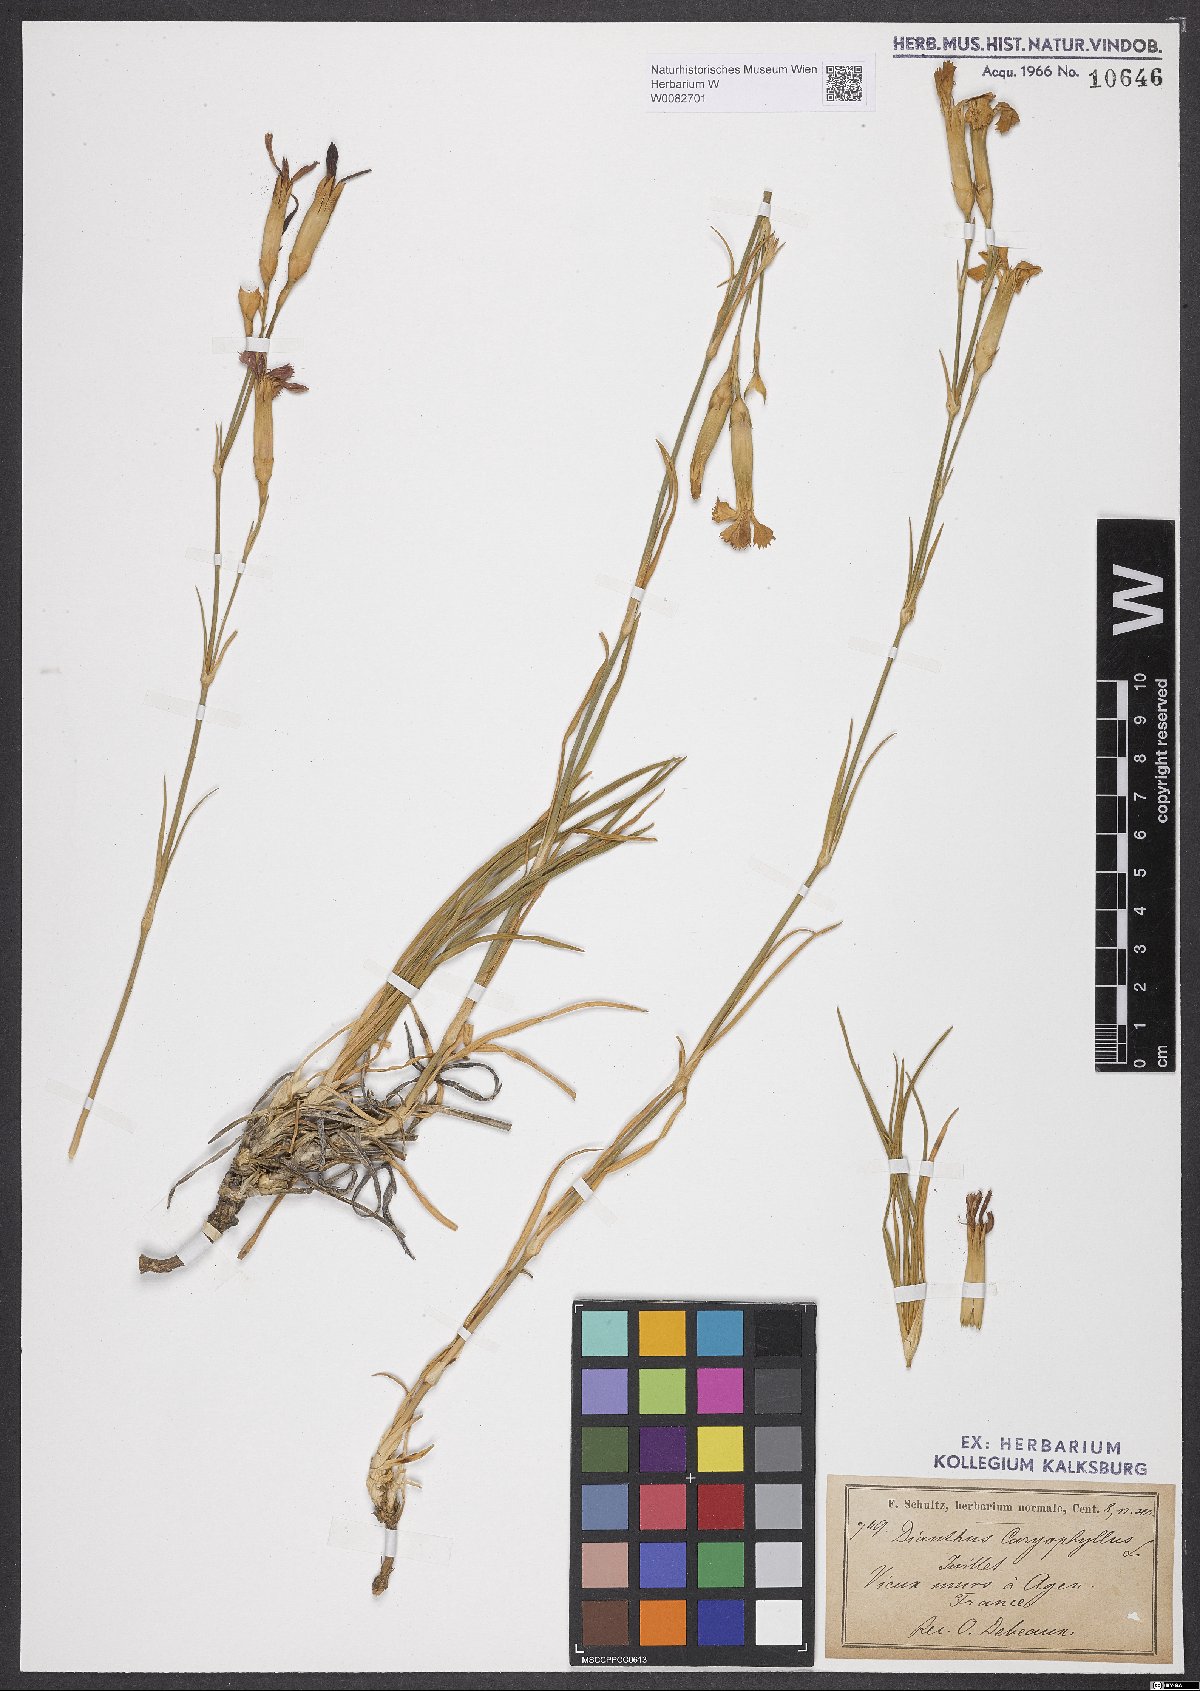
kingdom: Plantae
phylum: Tracheophyta
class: Magnoliopsida
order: Caryophyllales
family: Caryophyllaceae
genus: Dianthus
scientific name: Dianthus caryophyllus
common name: Clove pink
